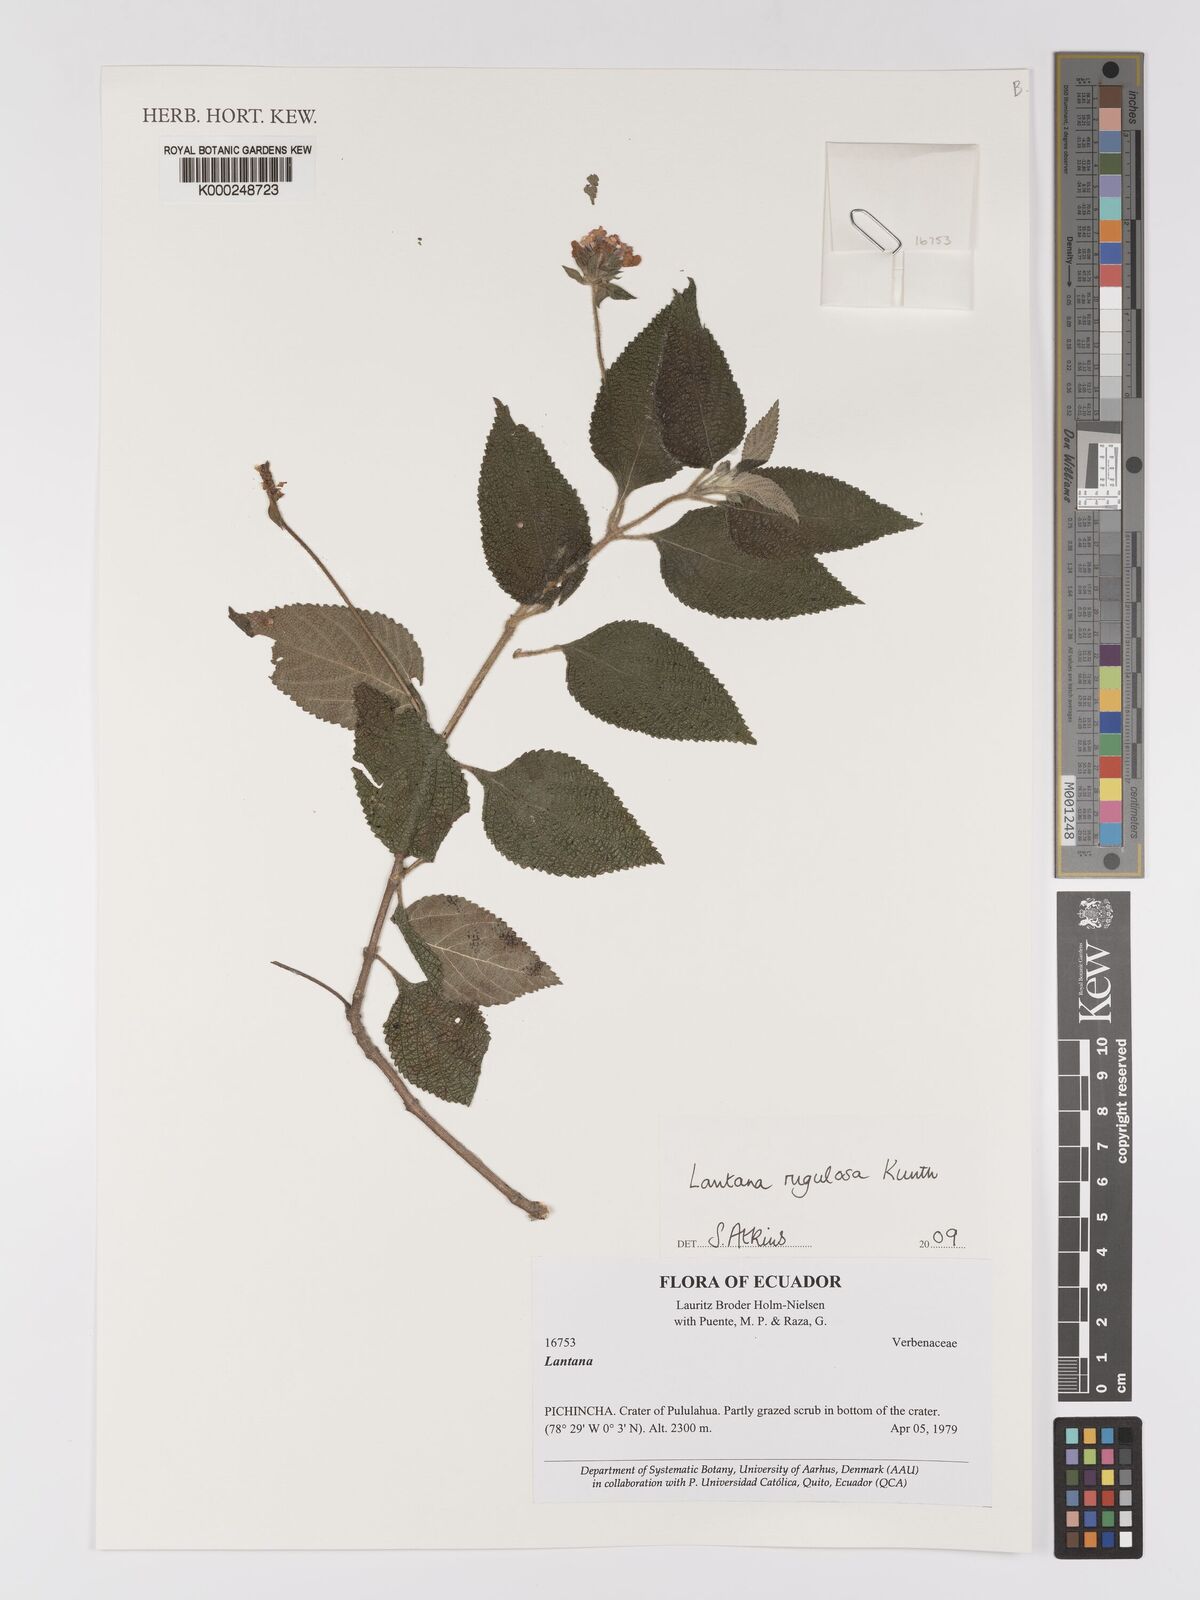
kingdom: Plantae
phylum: Tracheophyta
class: Magnoliopsida
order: Lamiales
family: Verbenaceae
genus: Lantana
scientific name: Lantana rugulosa
